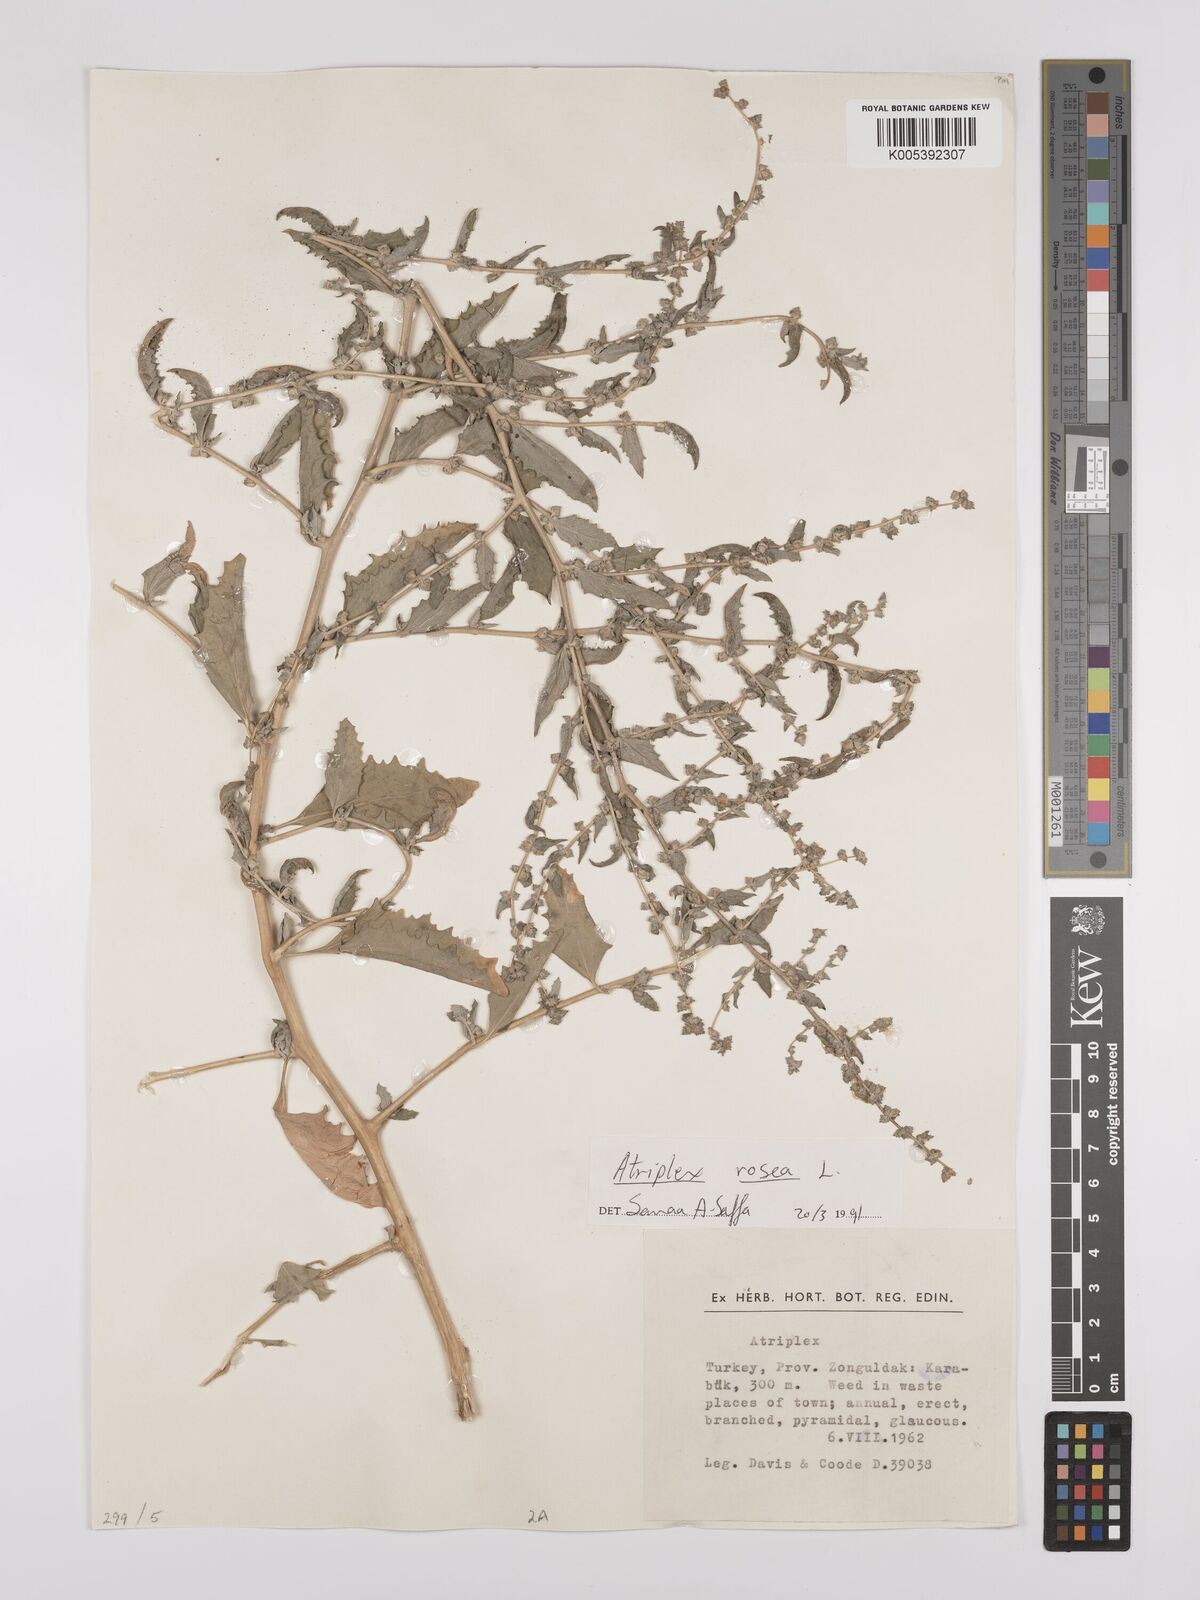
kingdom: Plantae
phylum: Tracheophyta
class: Magnoliopsida
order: Caryophyllales
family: Amaranthaceae
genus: Atriplex
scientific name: Atriplex
